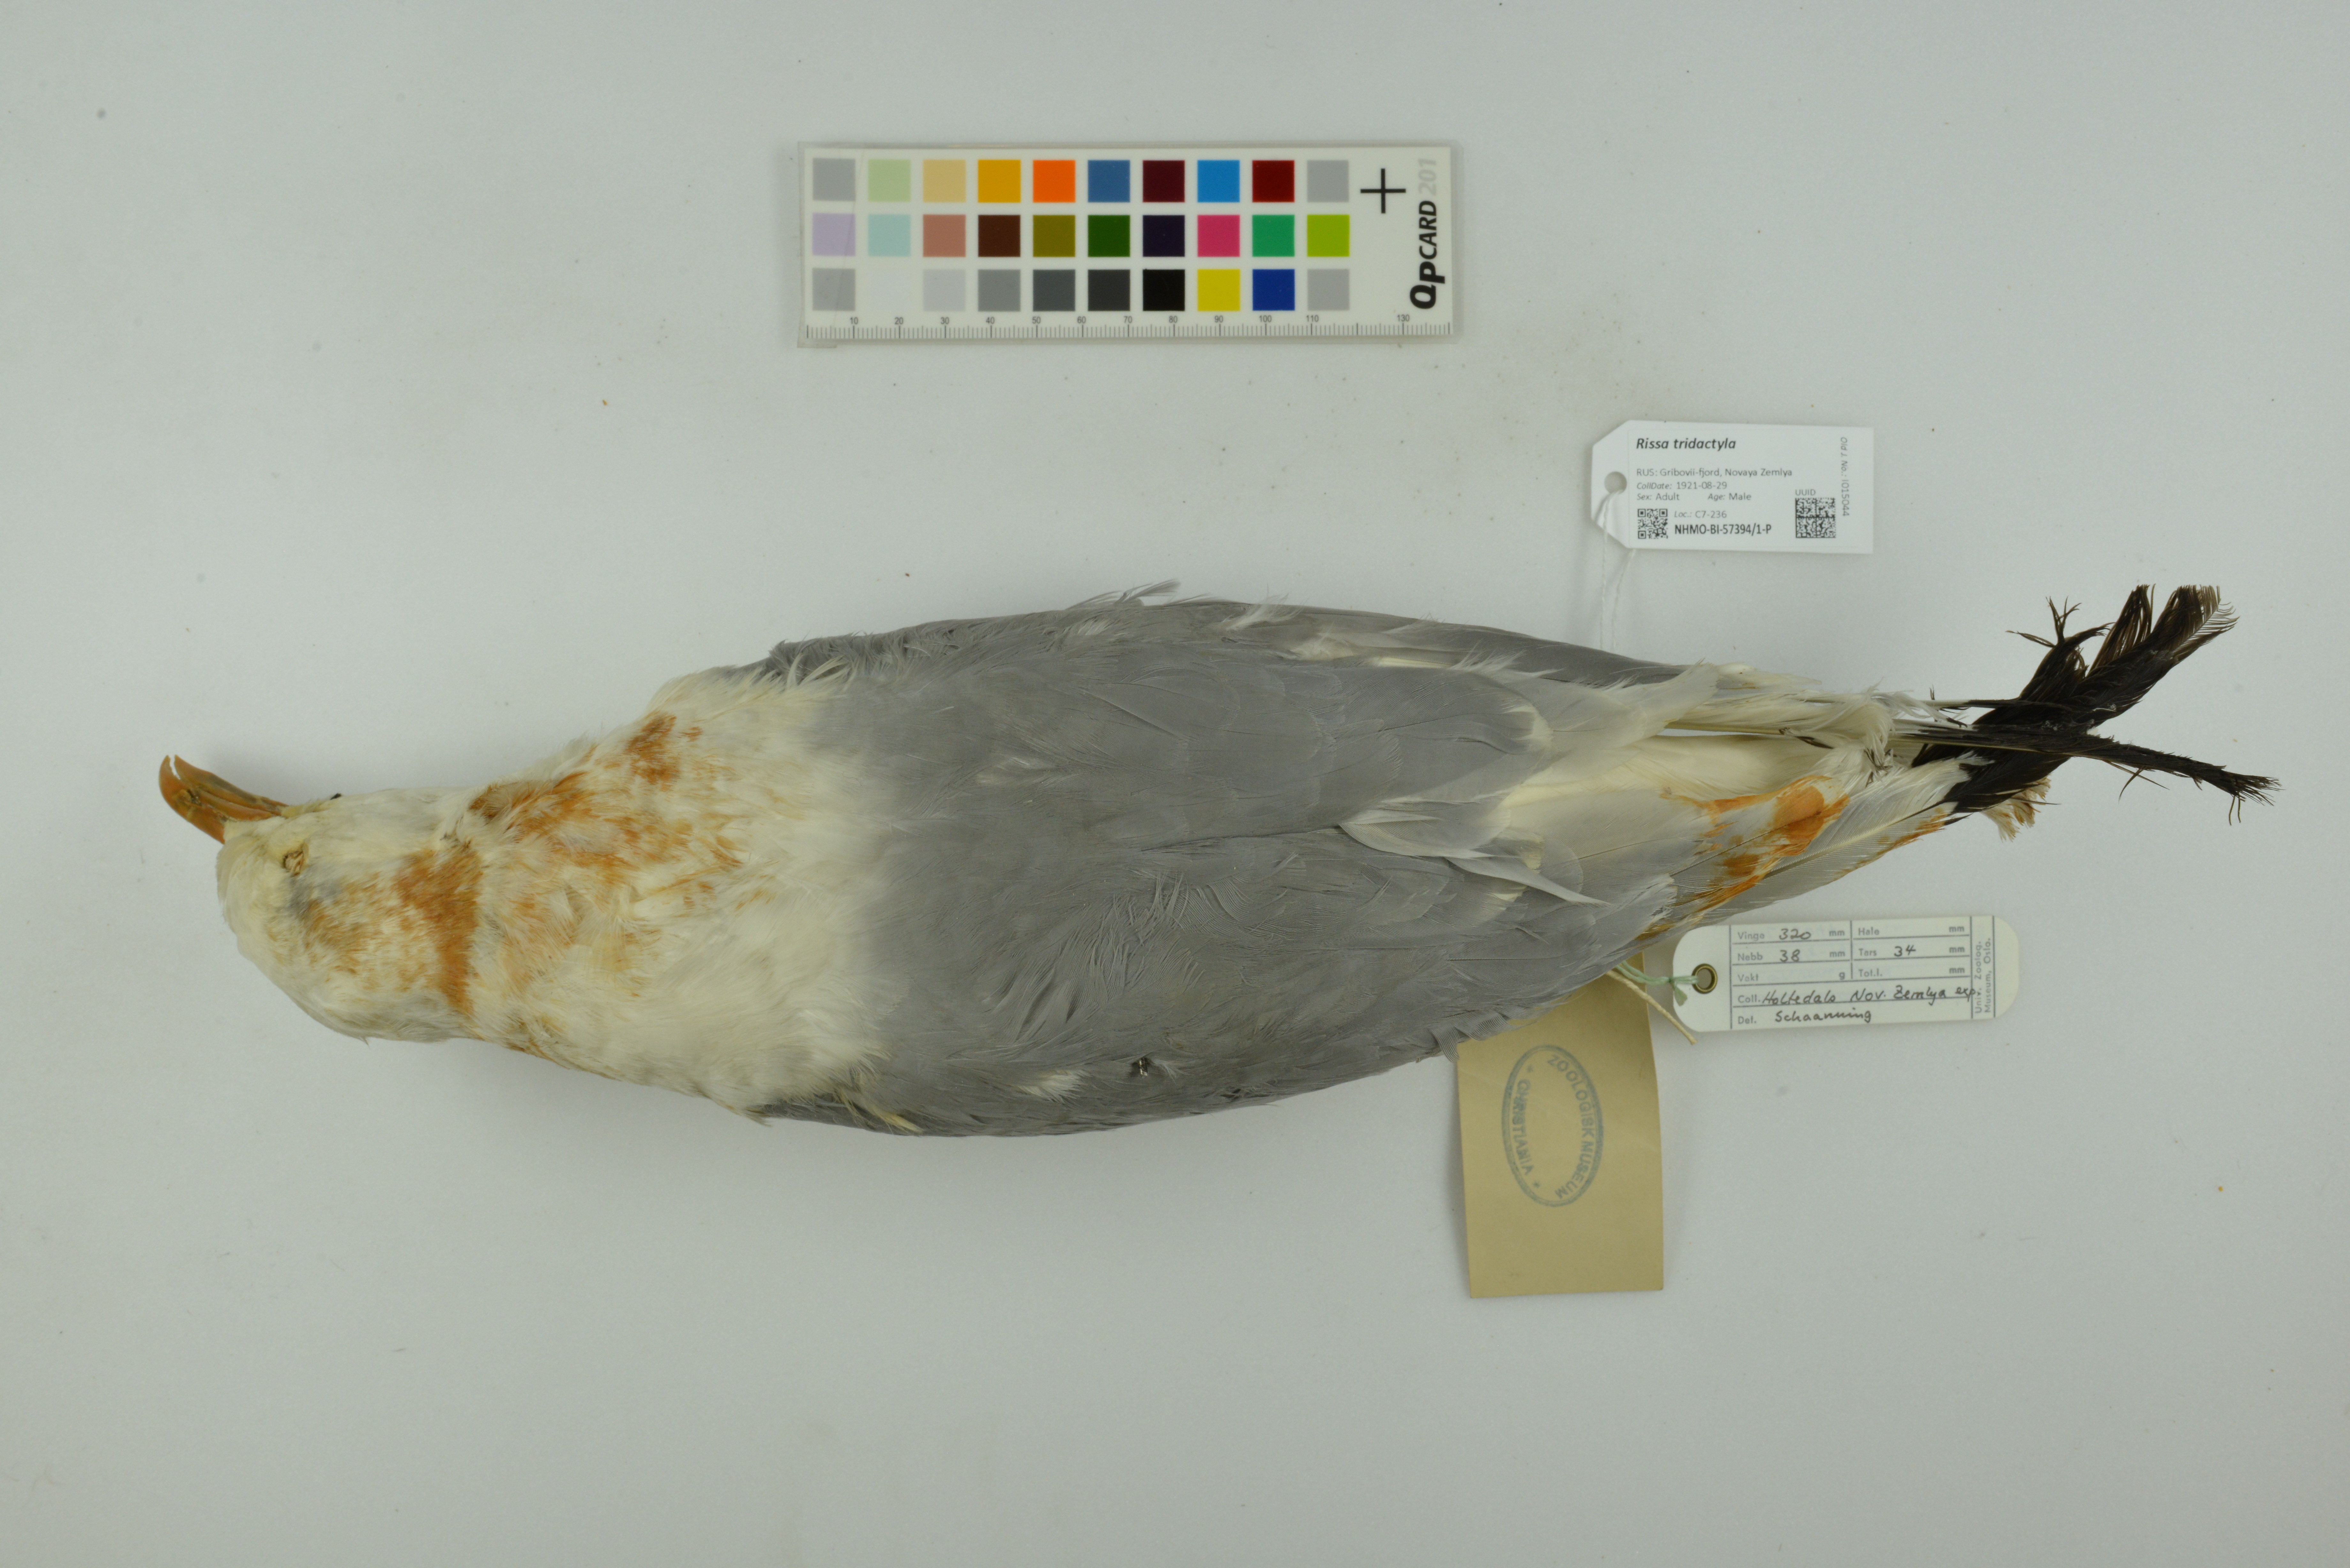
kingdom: Animalia
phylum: Chordata
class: Aves
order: Charadriiformes
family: Laridae
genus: Rissa
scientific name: Rissa tridactyla
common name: Black-legged kittiwake
